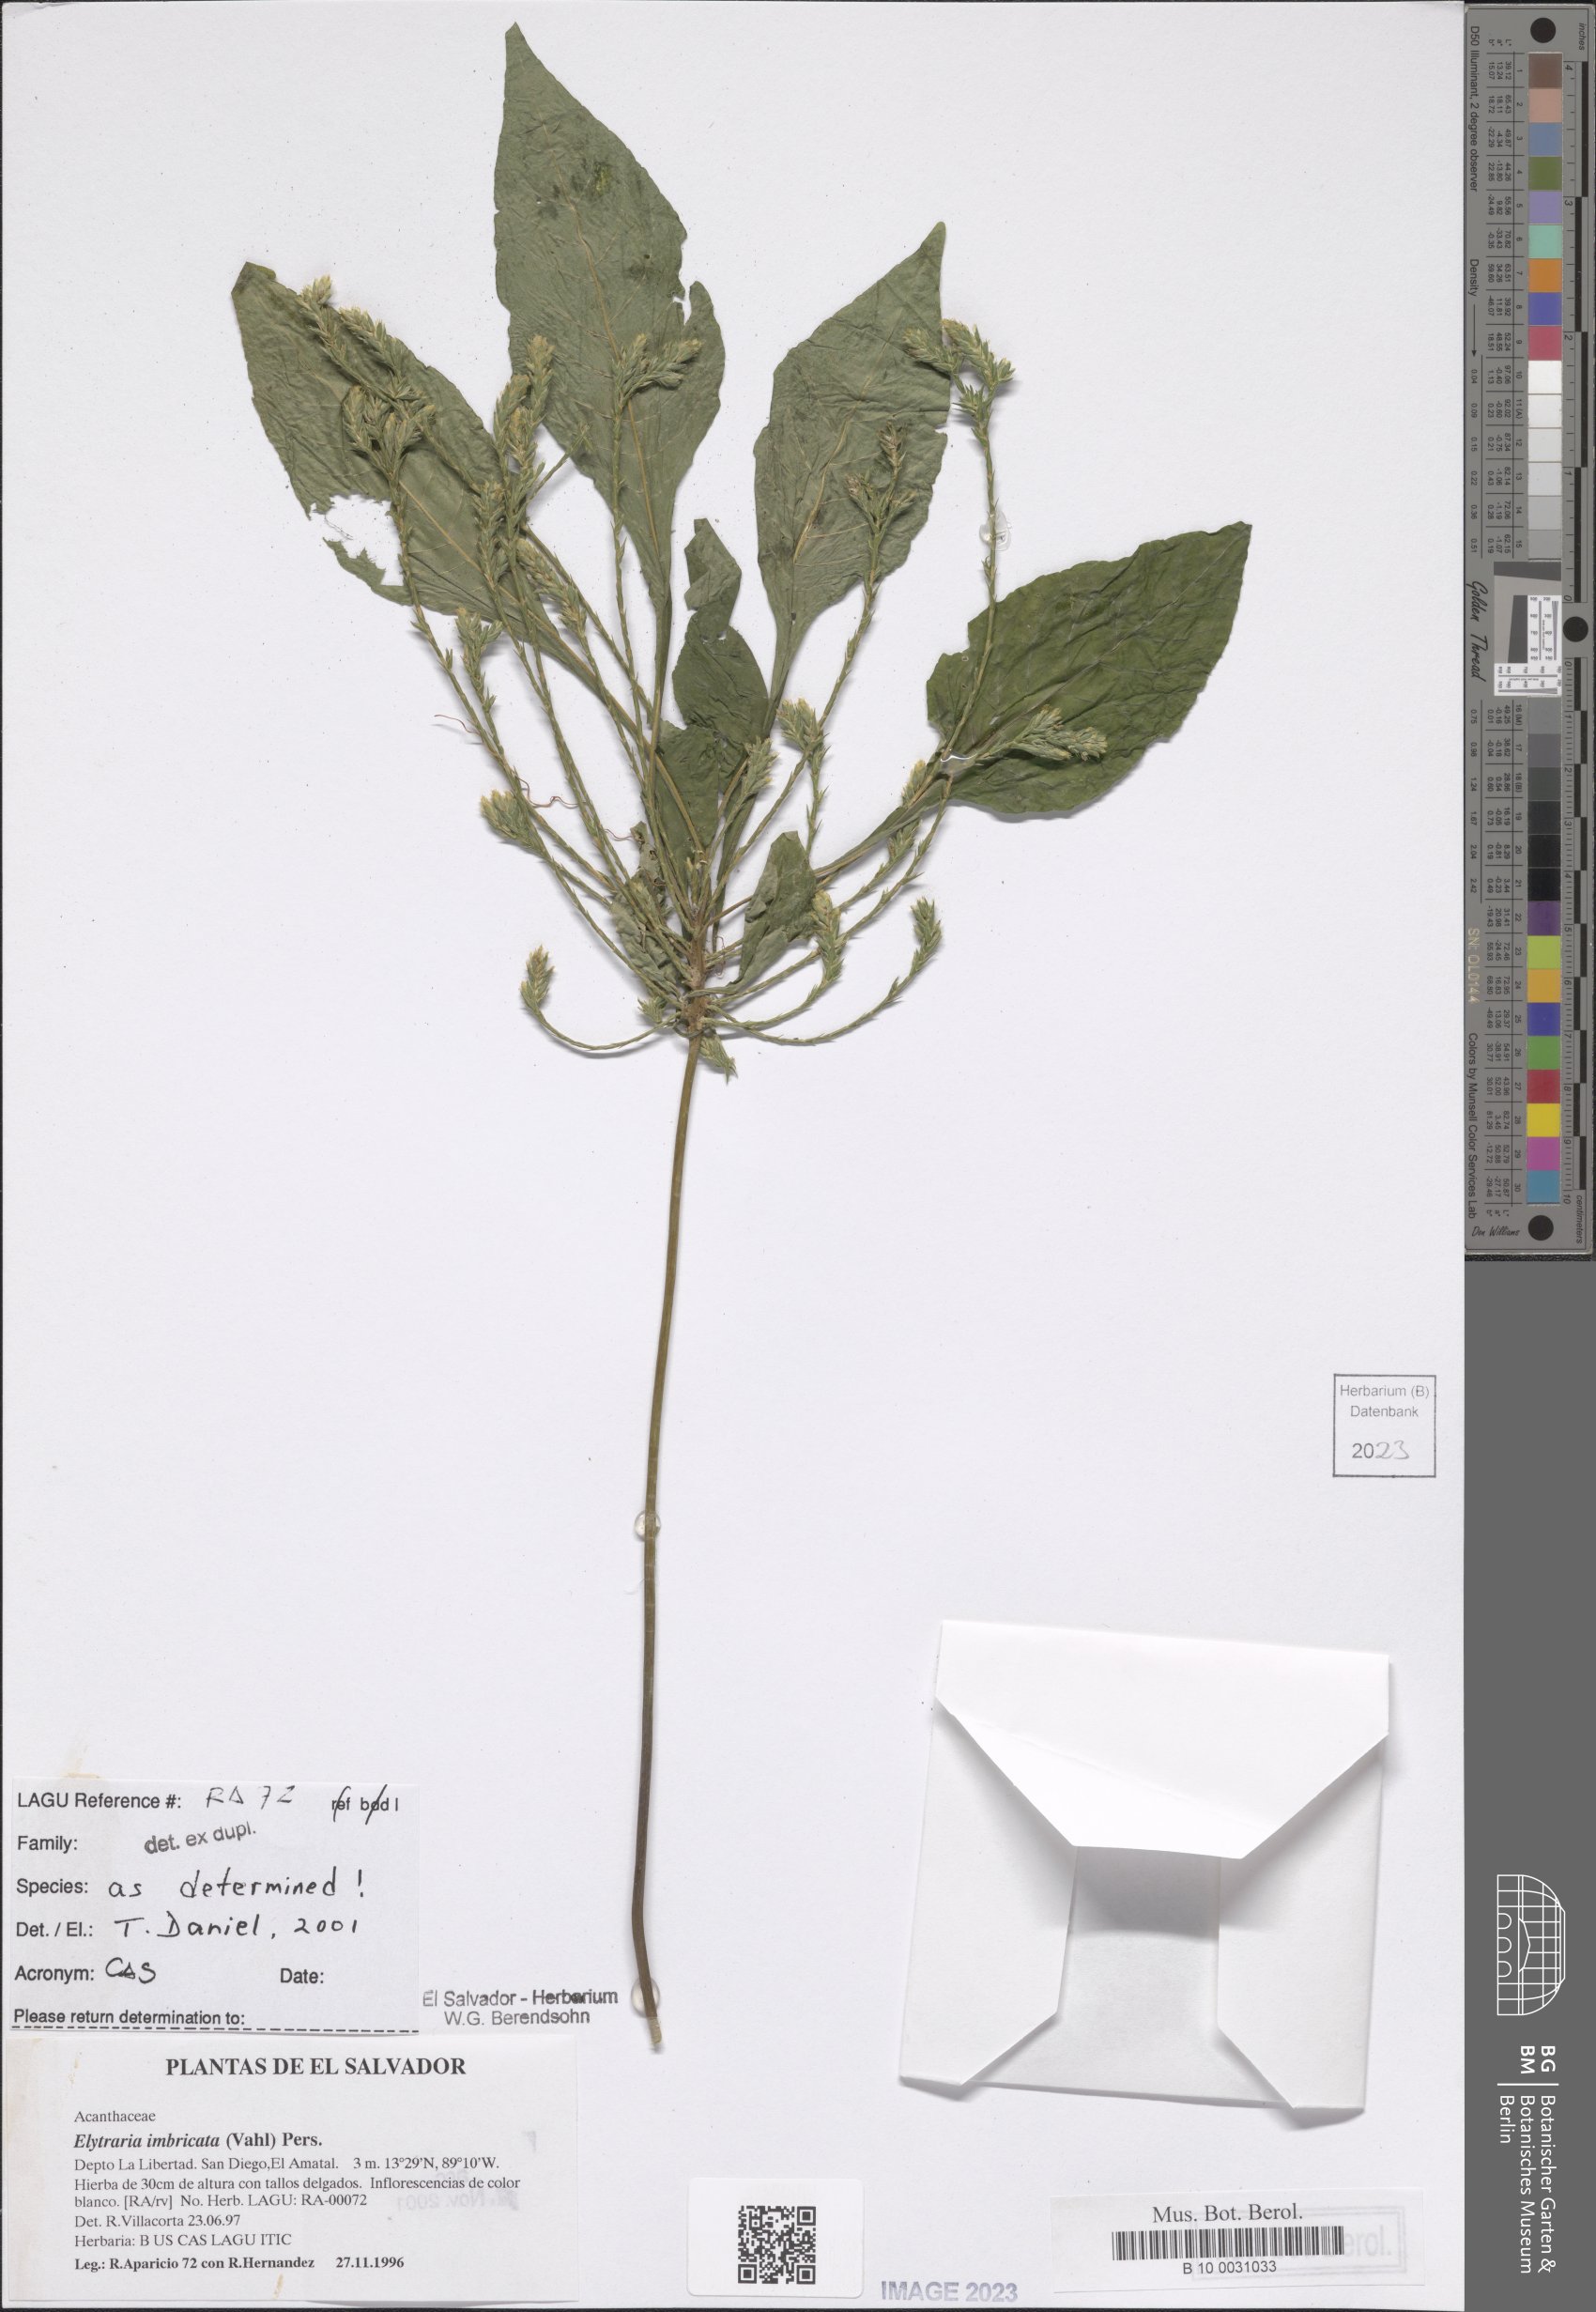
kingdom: Plantae
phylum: Tracheophyta
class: Magnoliopsida
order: Lamiales
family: Acanthaceae
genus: Elytraria
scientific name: Elytraria imbricata
